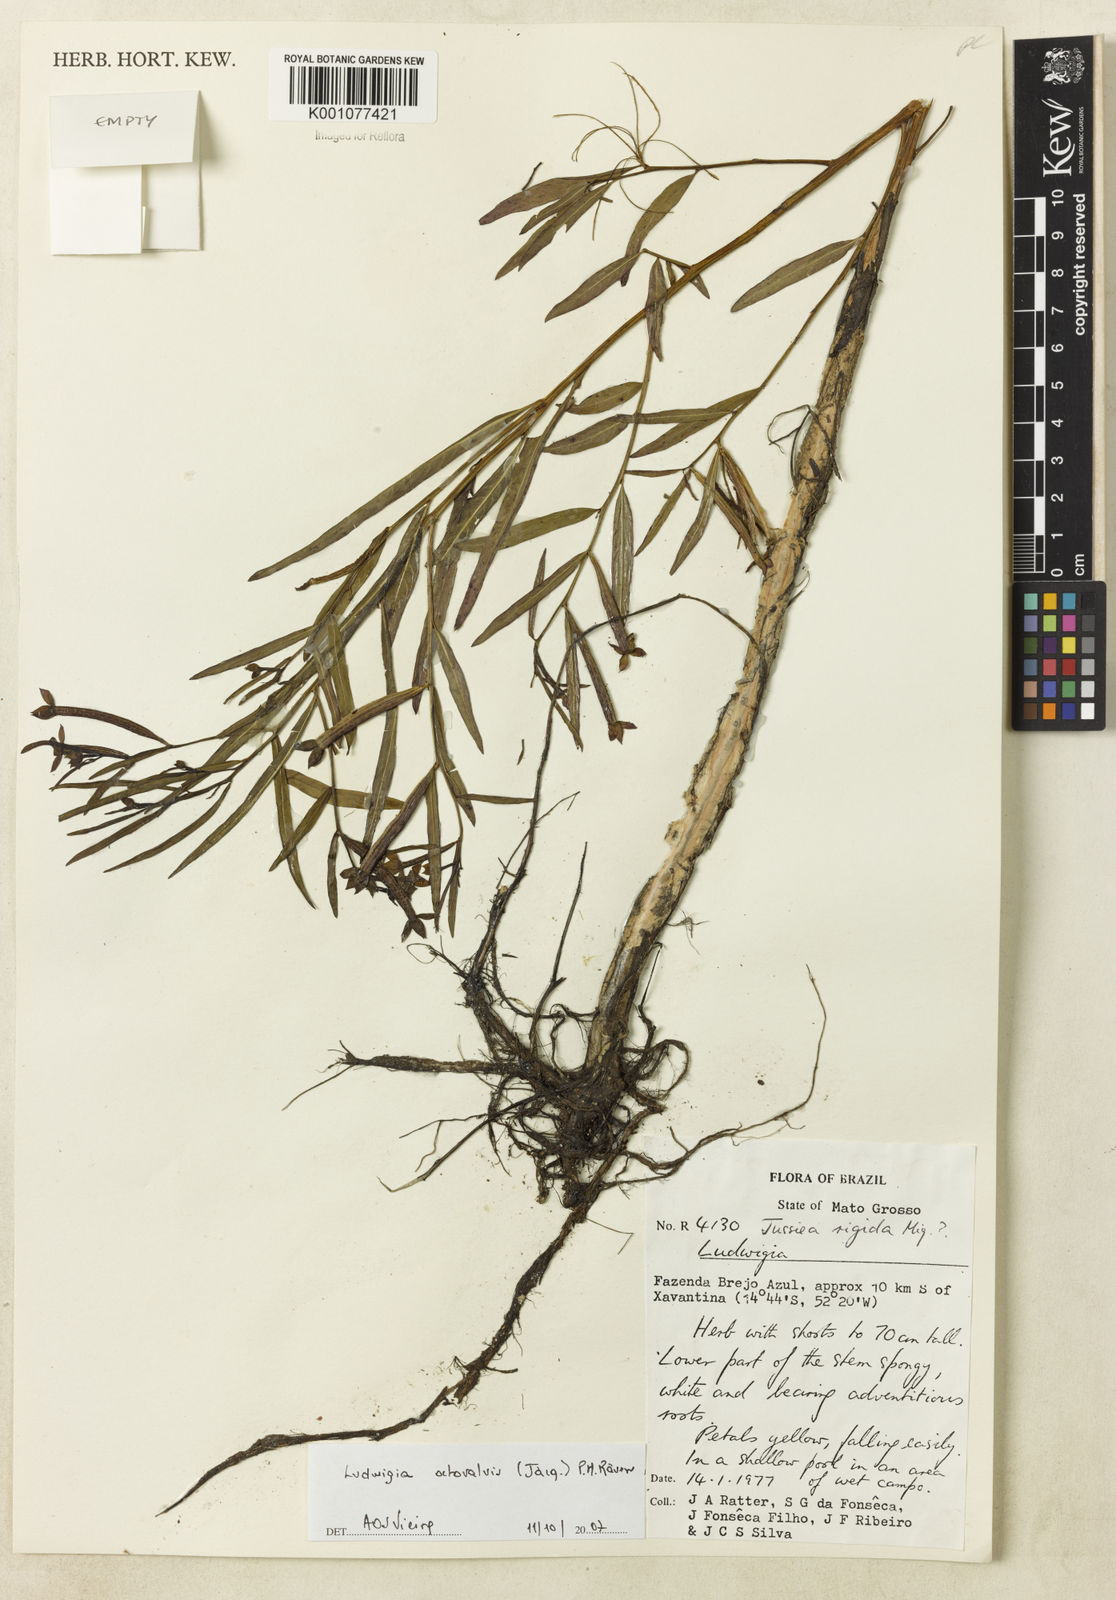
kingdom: Plantae
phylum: Tracheophyta
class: Magnoliopsida
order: Myrtales
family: Onagraceae
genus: Ludwigia
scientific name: Ludwigia octovalvis
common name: Water-primrose
